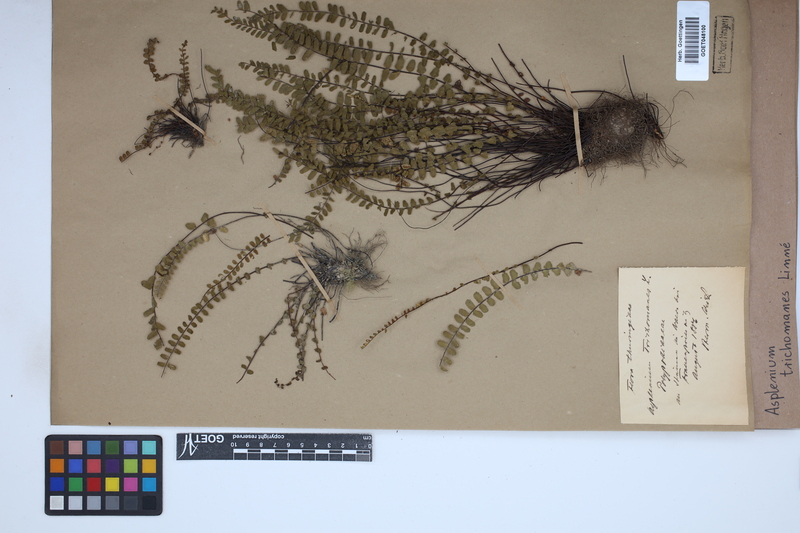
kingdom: Plantae
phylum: Tracheophyta
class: Polypodiopsida
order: Polypodiales
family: Aspleniaceae
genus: Asplenium
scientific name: Asplenium trichomanes
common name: Maidenhair spleenwort
